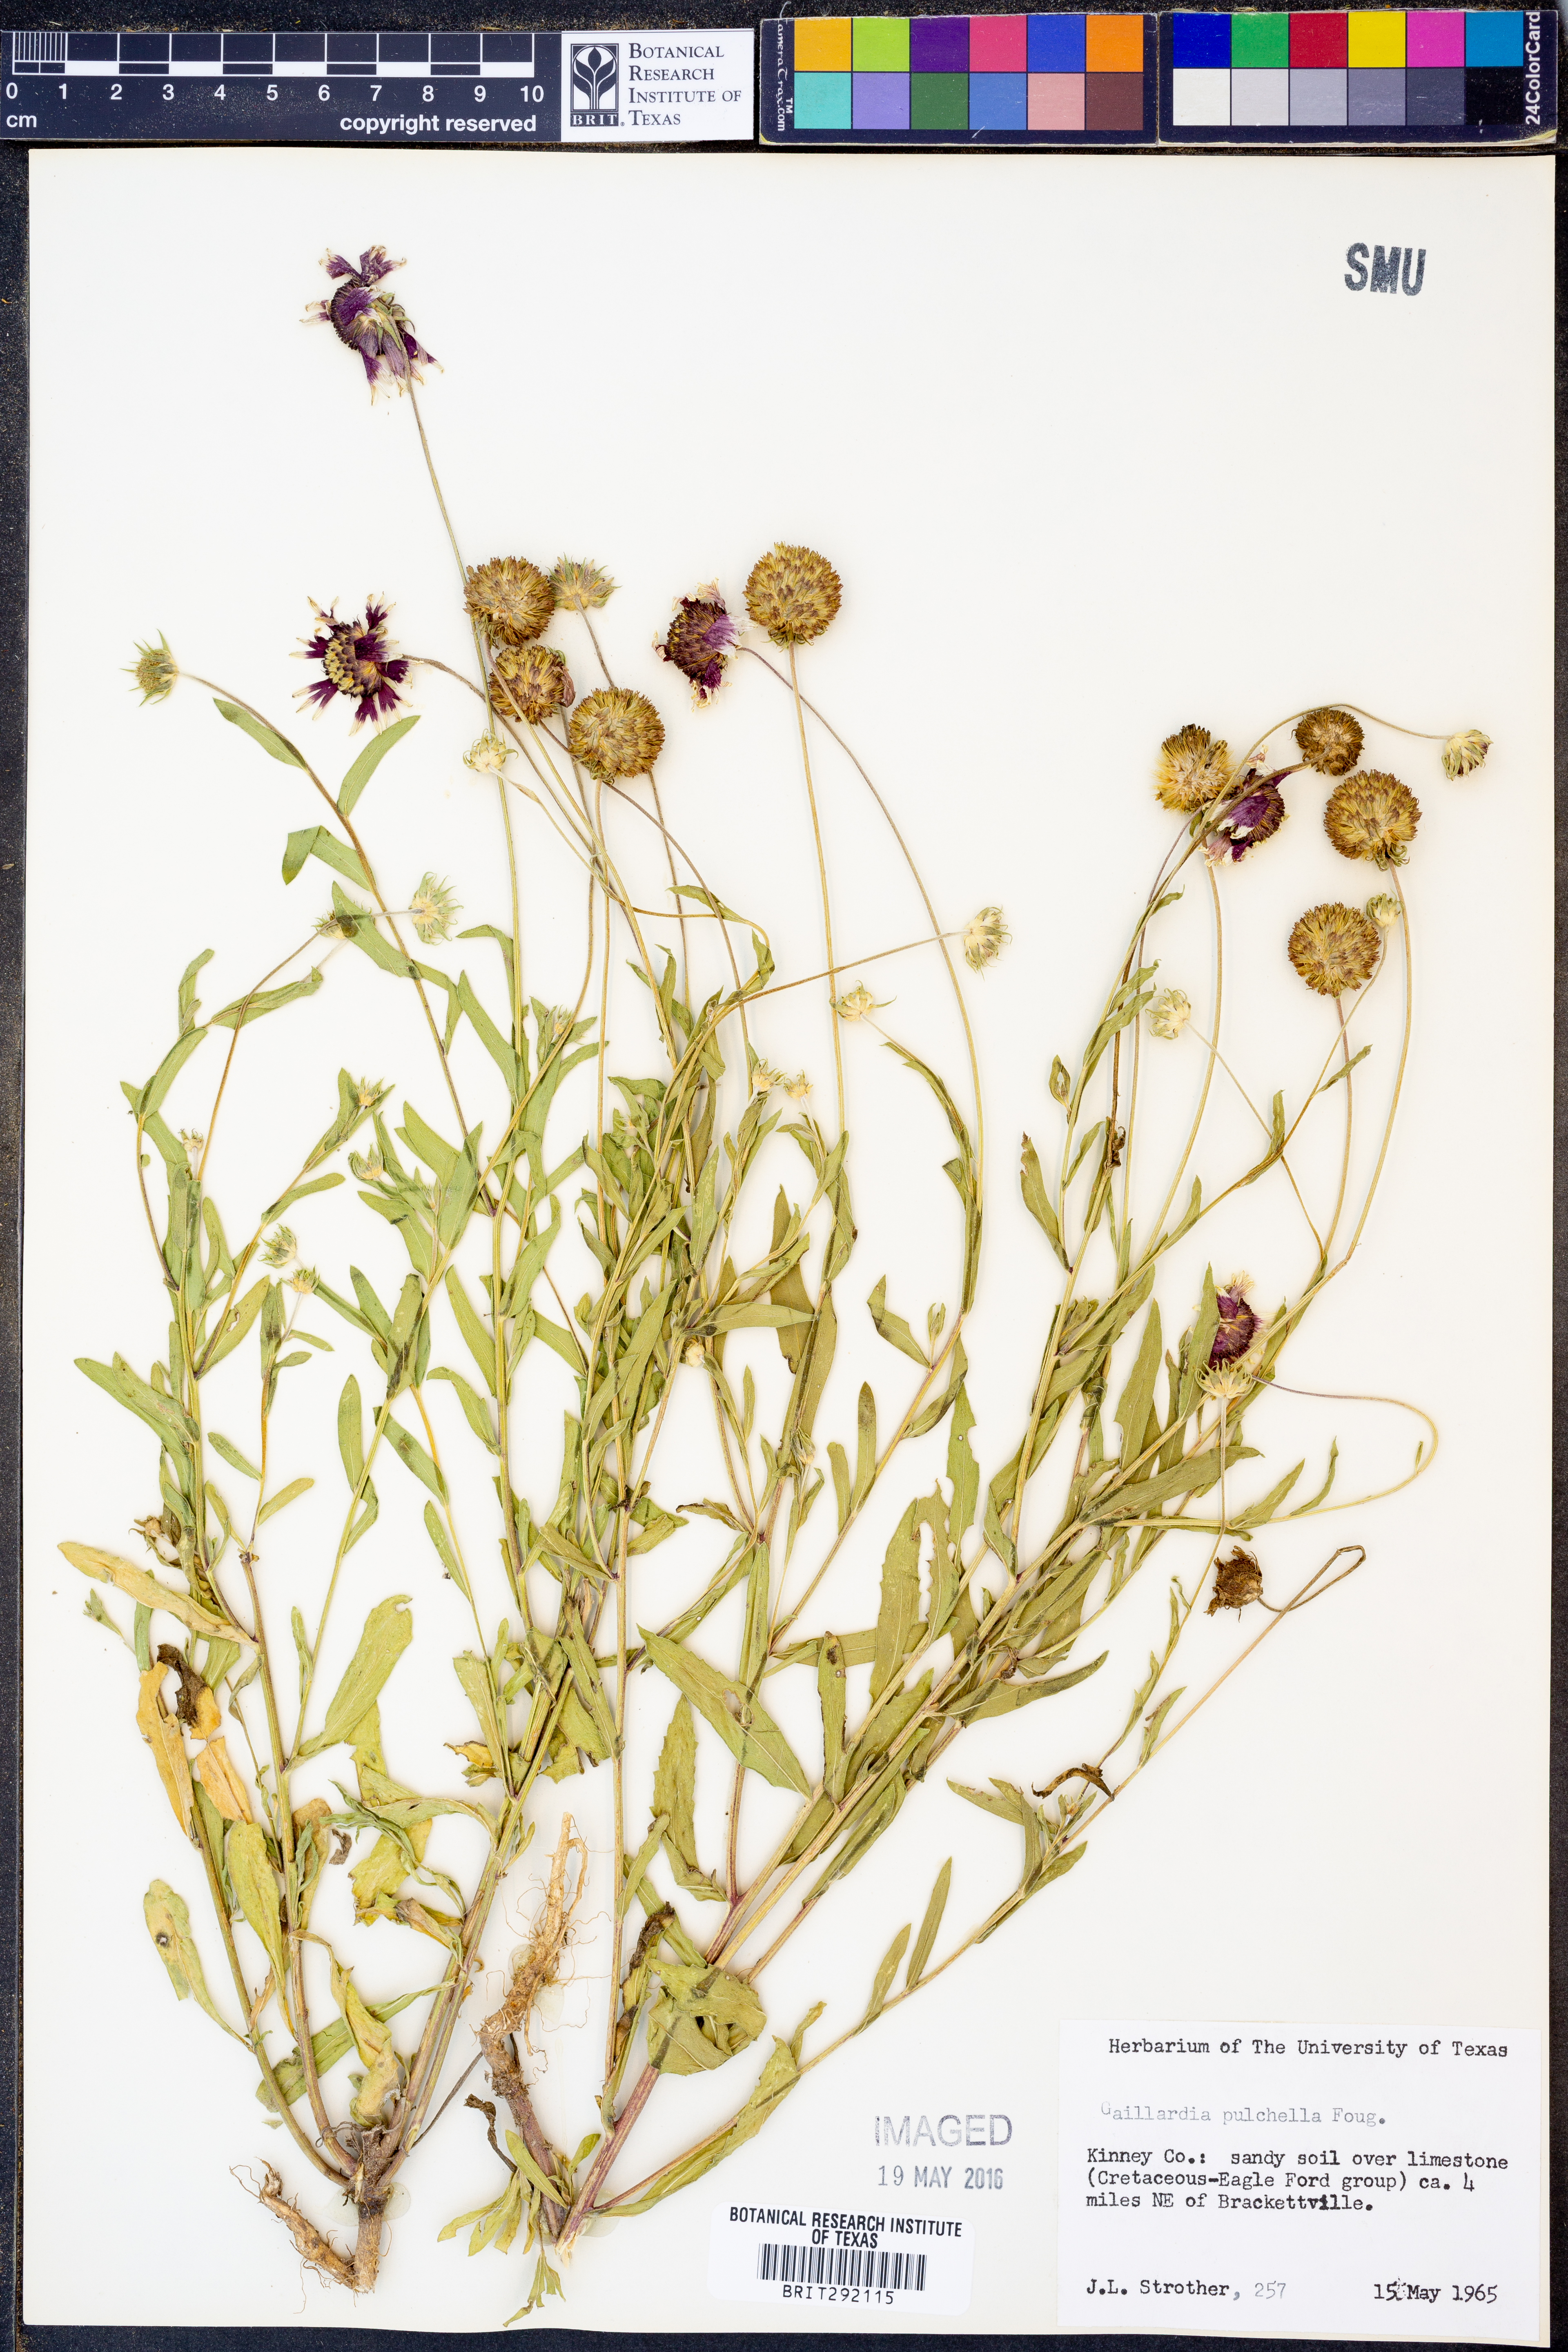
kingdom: Plantae
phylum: Tracheophyta
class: Magnoliopsida
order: Asterales
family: Asteraceae
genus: Gaillardia
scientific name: Gaillardia pulchella
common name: Firewheel
